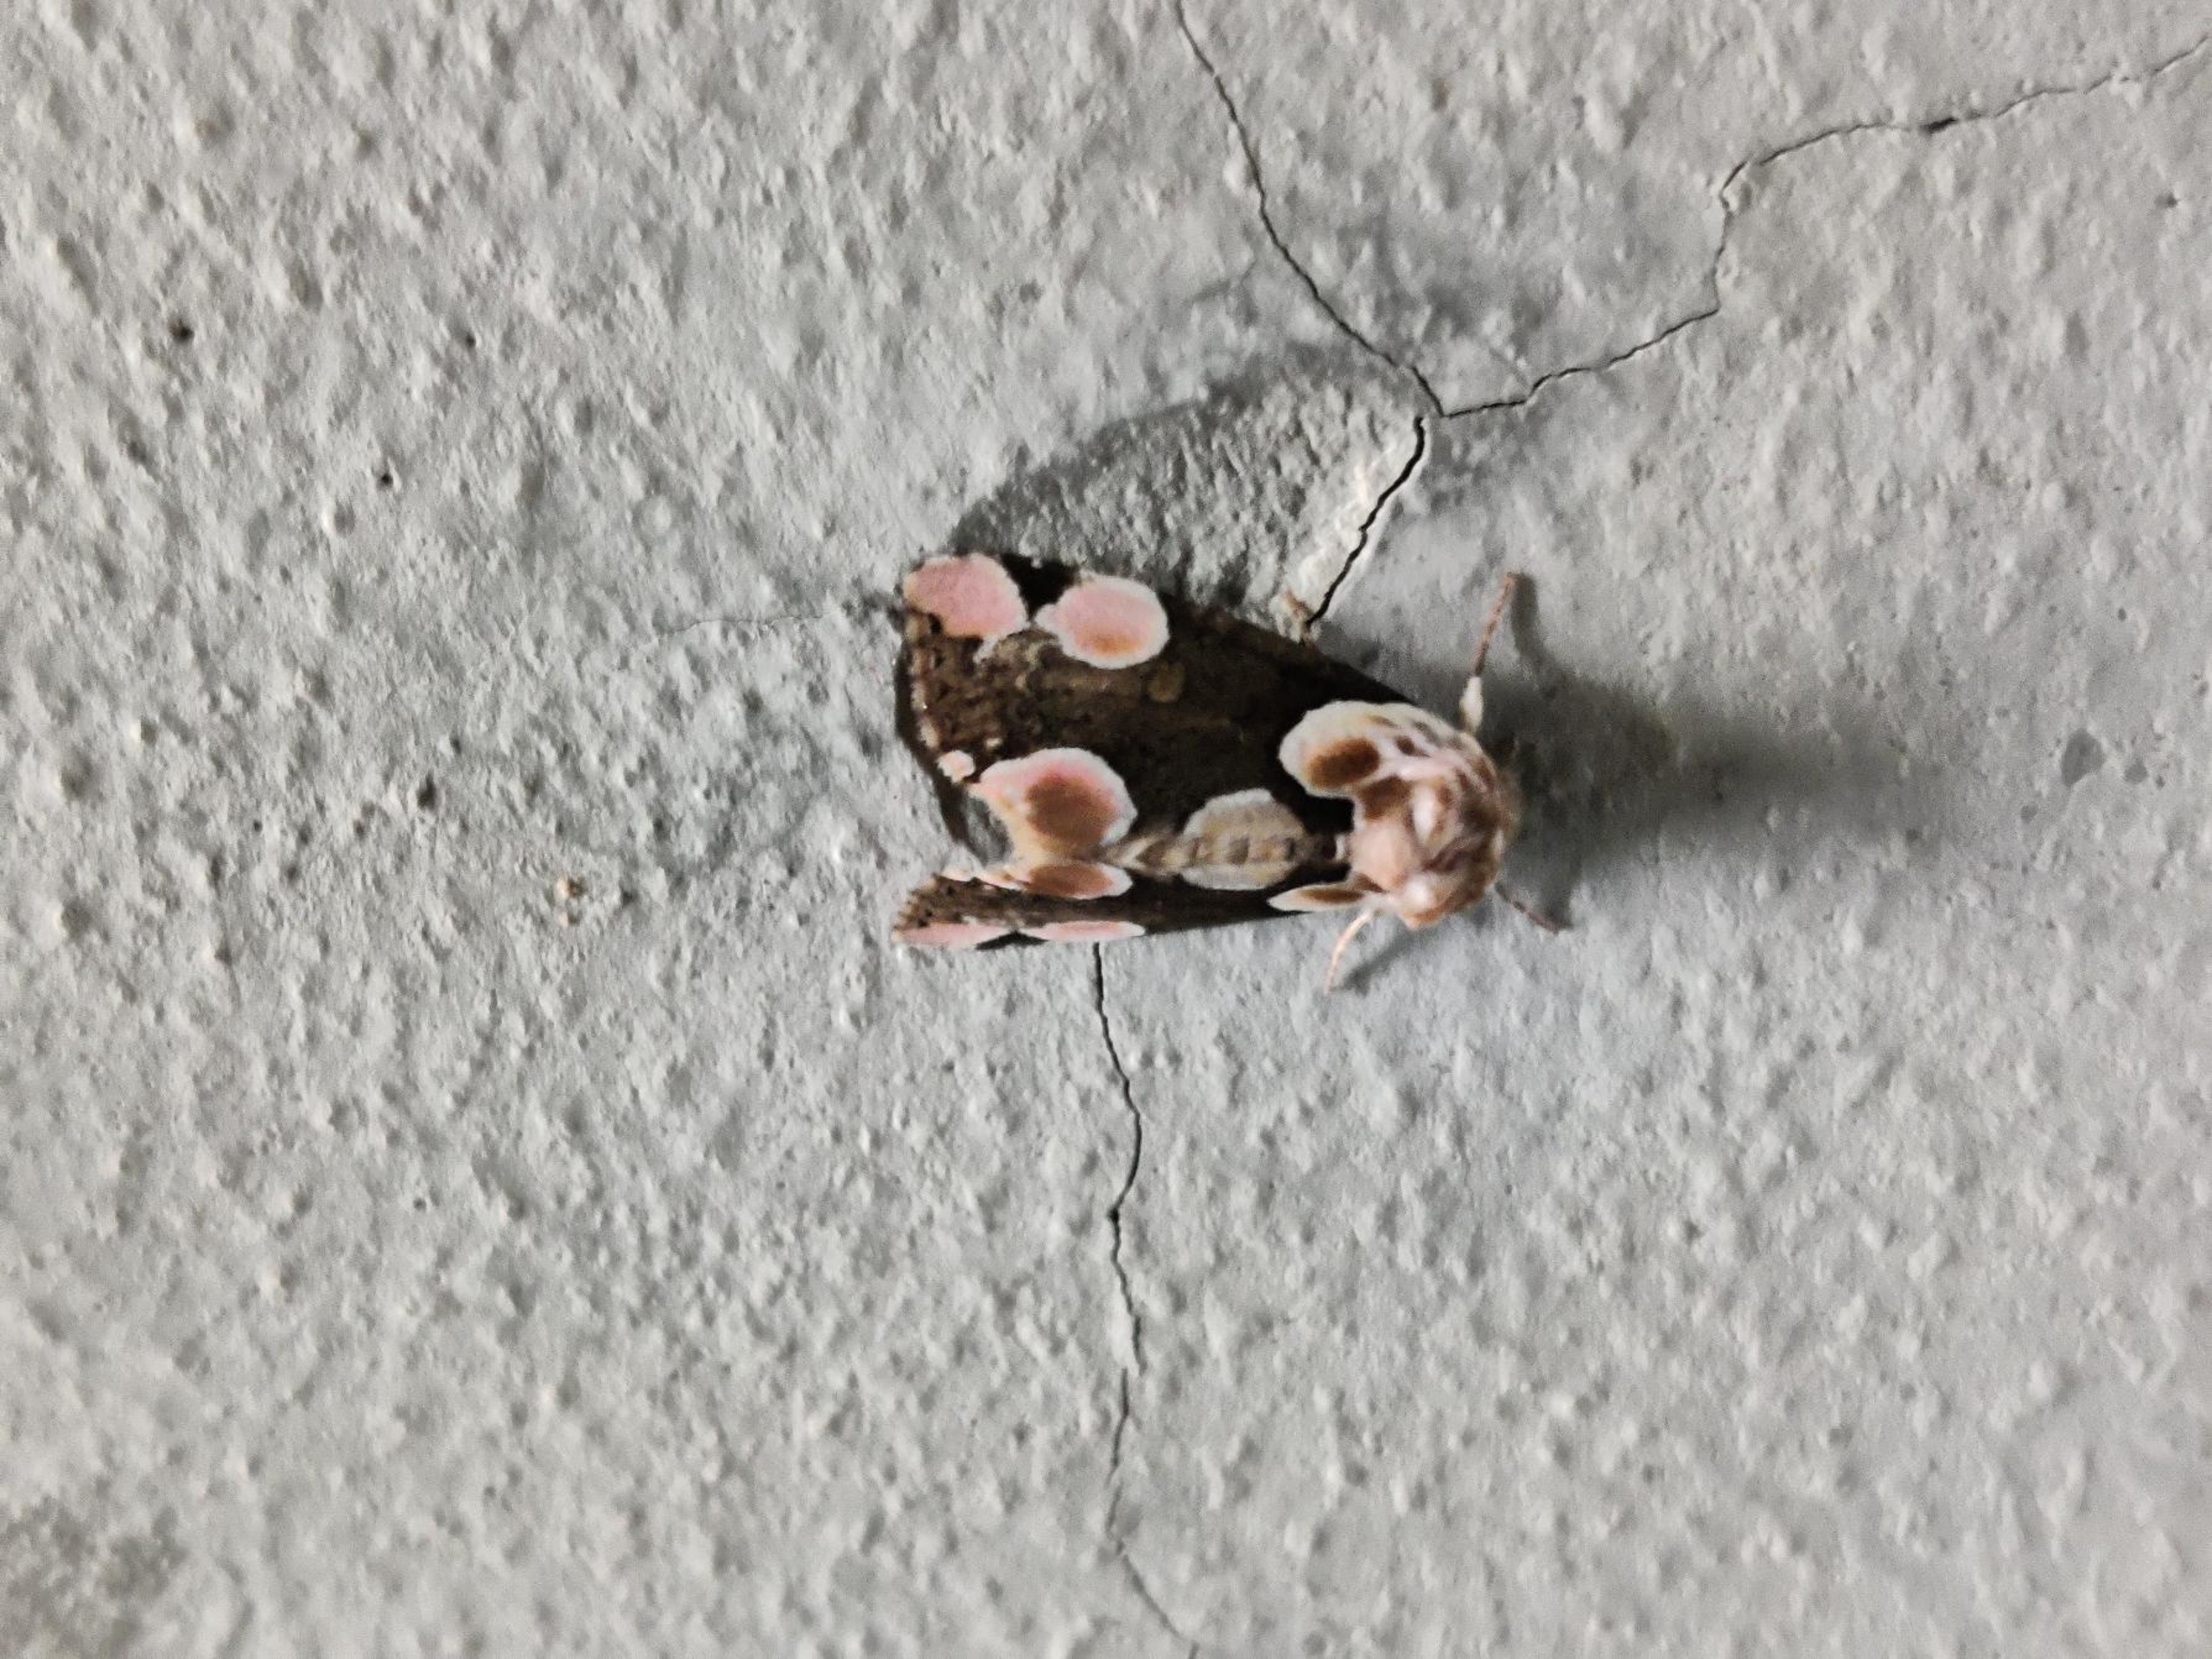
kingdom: Animalia
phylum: Arthropoda
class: Insecta
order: Lepidoptera
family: Drepanidae
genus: Thyatira
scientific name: Thyatira batis
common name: Rosenplet
